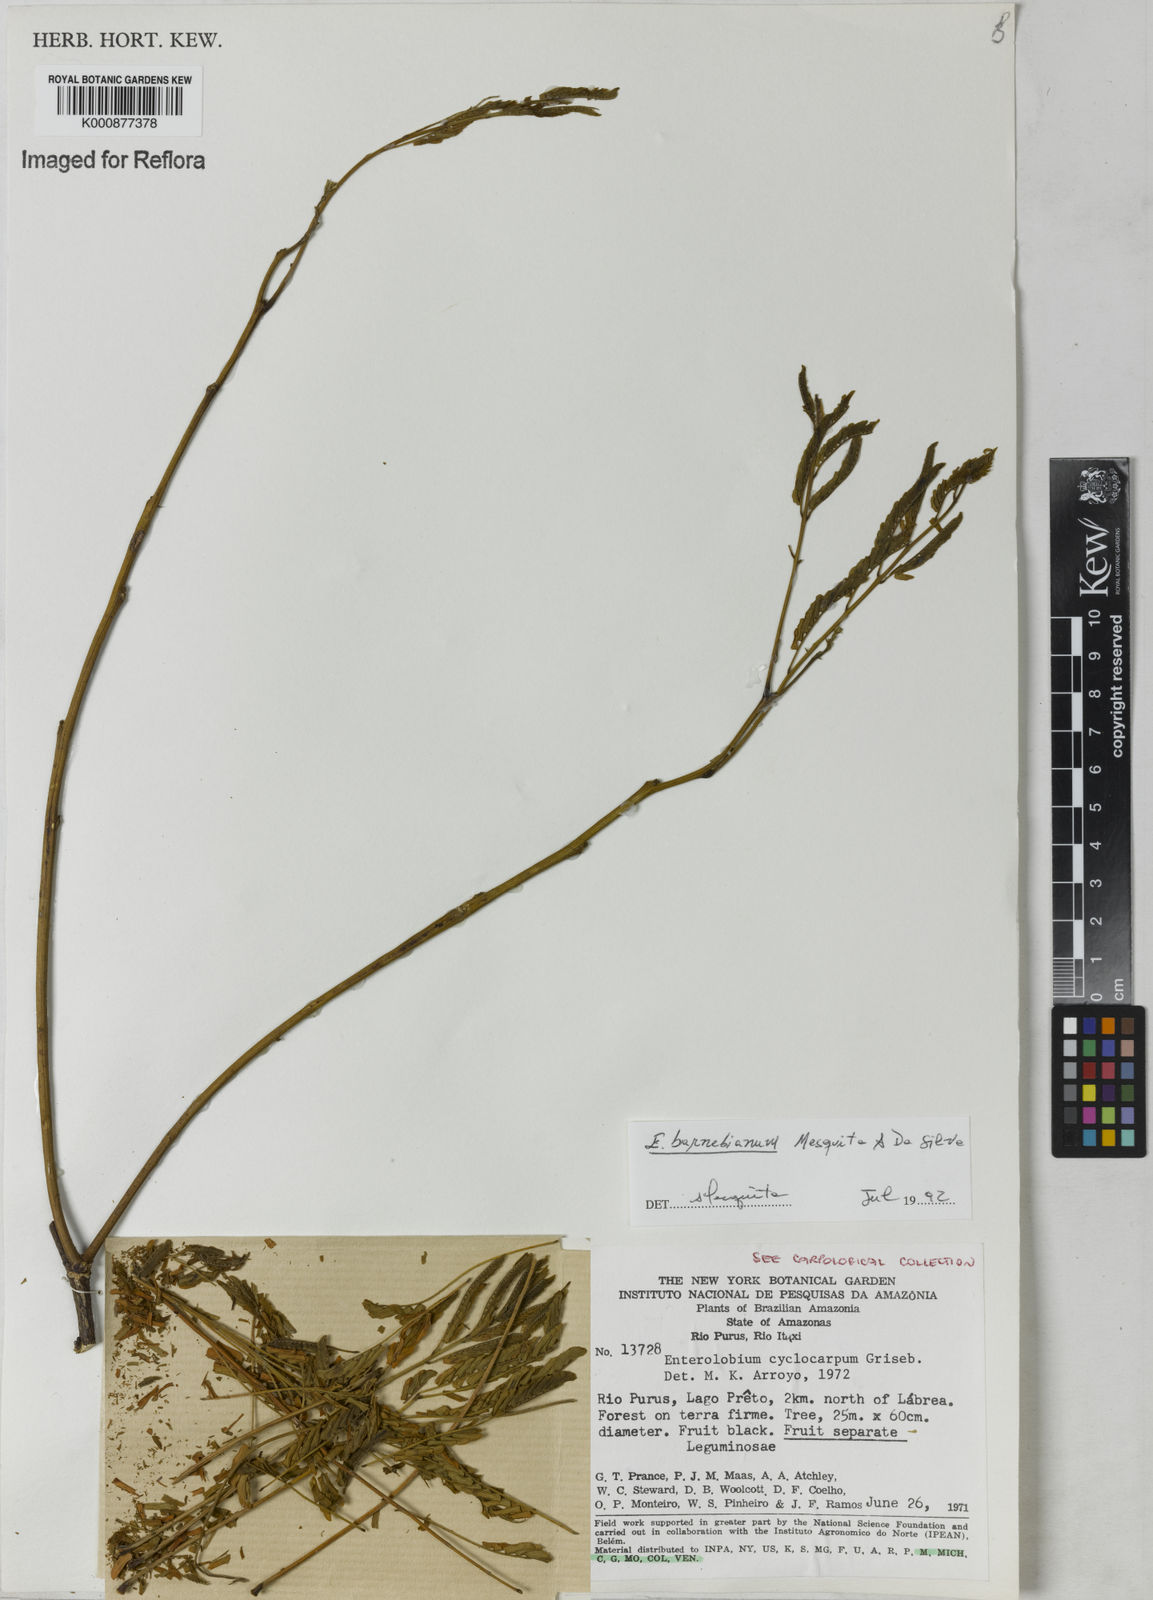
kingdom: Plantae
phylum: Tracheophyta
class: Magnoliopsida
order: Fabales
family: Fabaceae
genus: Enterolobium
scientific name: Enterolobium cyclocarpum
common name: Ear tree
